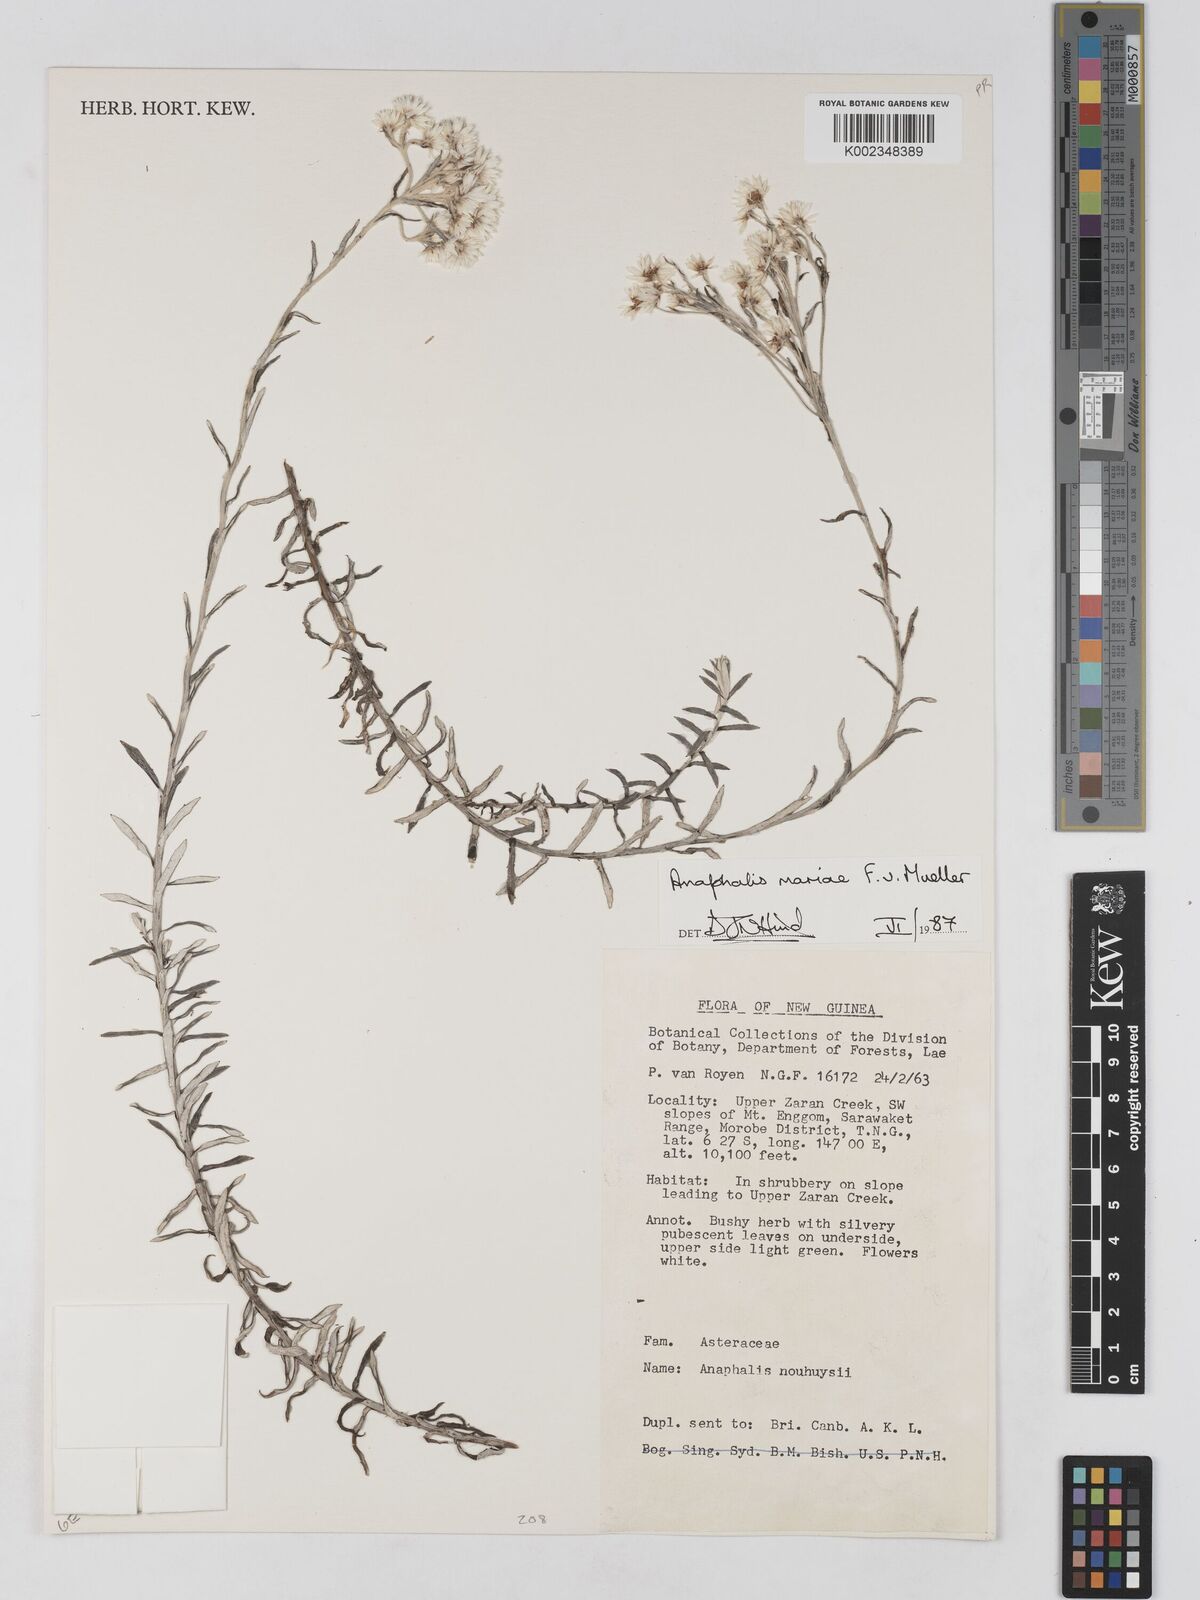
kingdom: Plantae
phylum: Tracheophyta
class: Magnoliopsida
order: Asterales
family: Asteraceae
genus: Anaphalioides
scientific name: Anaphalioides mariae
